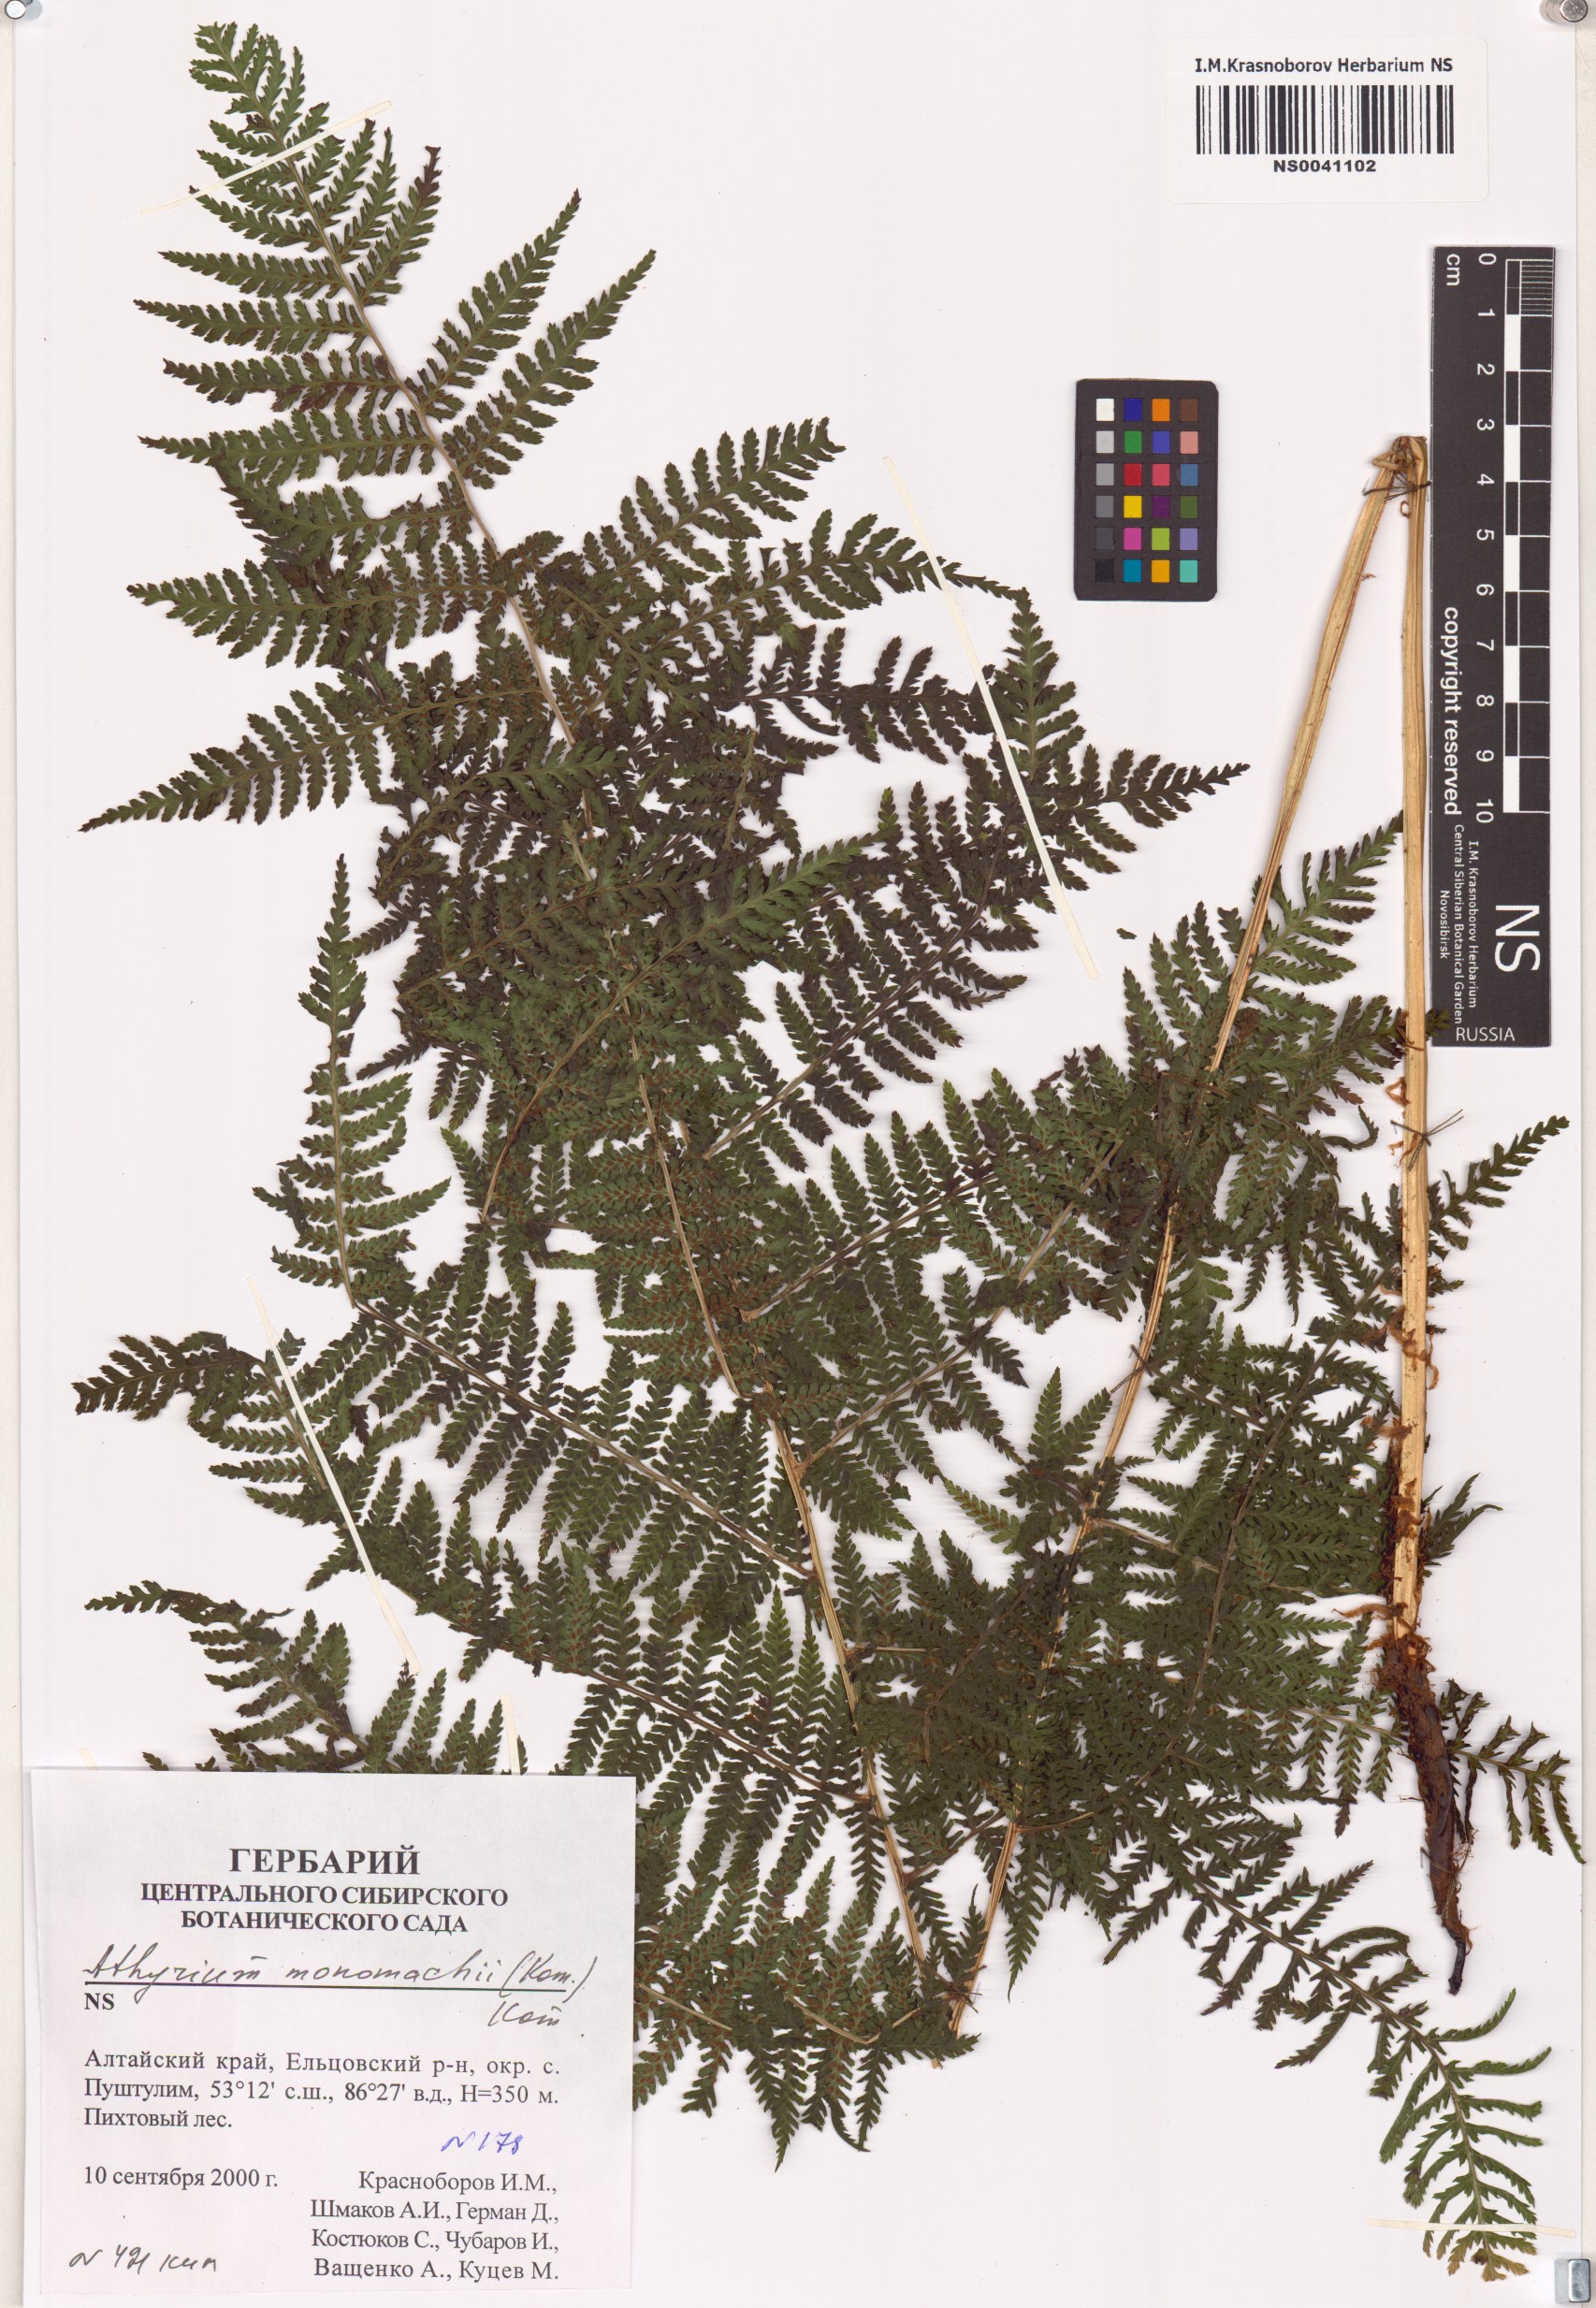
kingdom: Plantae
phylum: Tracheophyta
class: Polypodiopsida
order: Polypodiales
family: Athyriaceae
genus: Athyrium
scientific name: Athyrium monomachii
